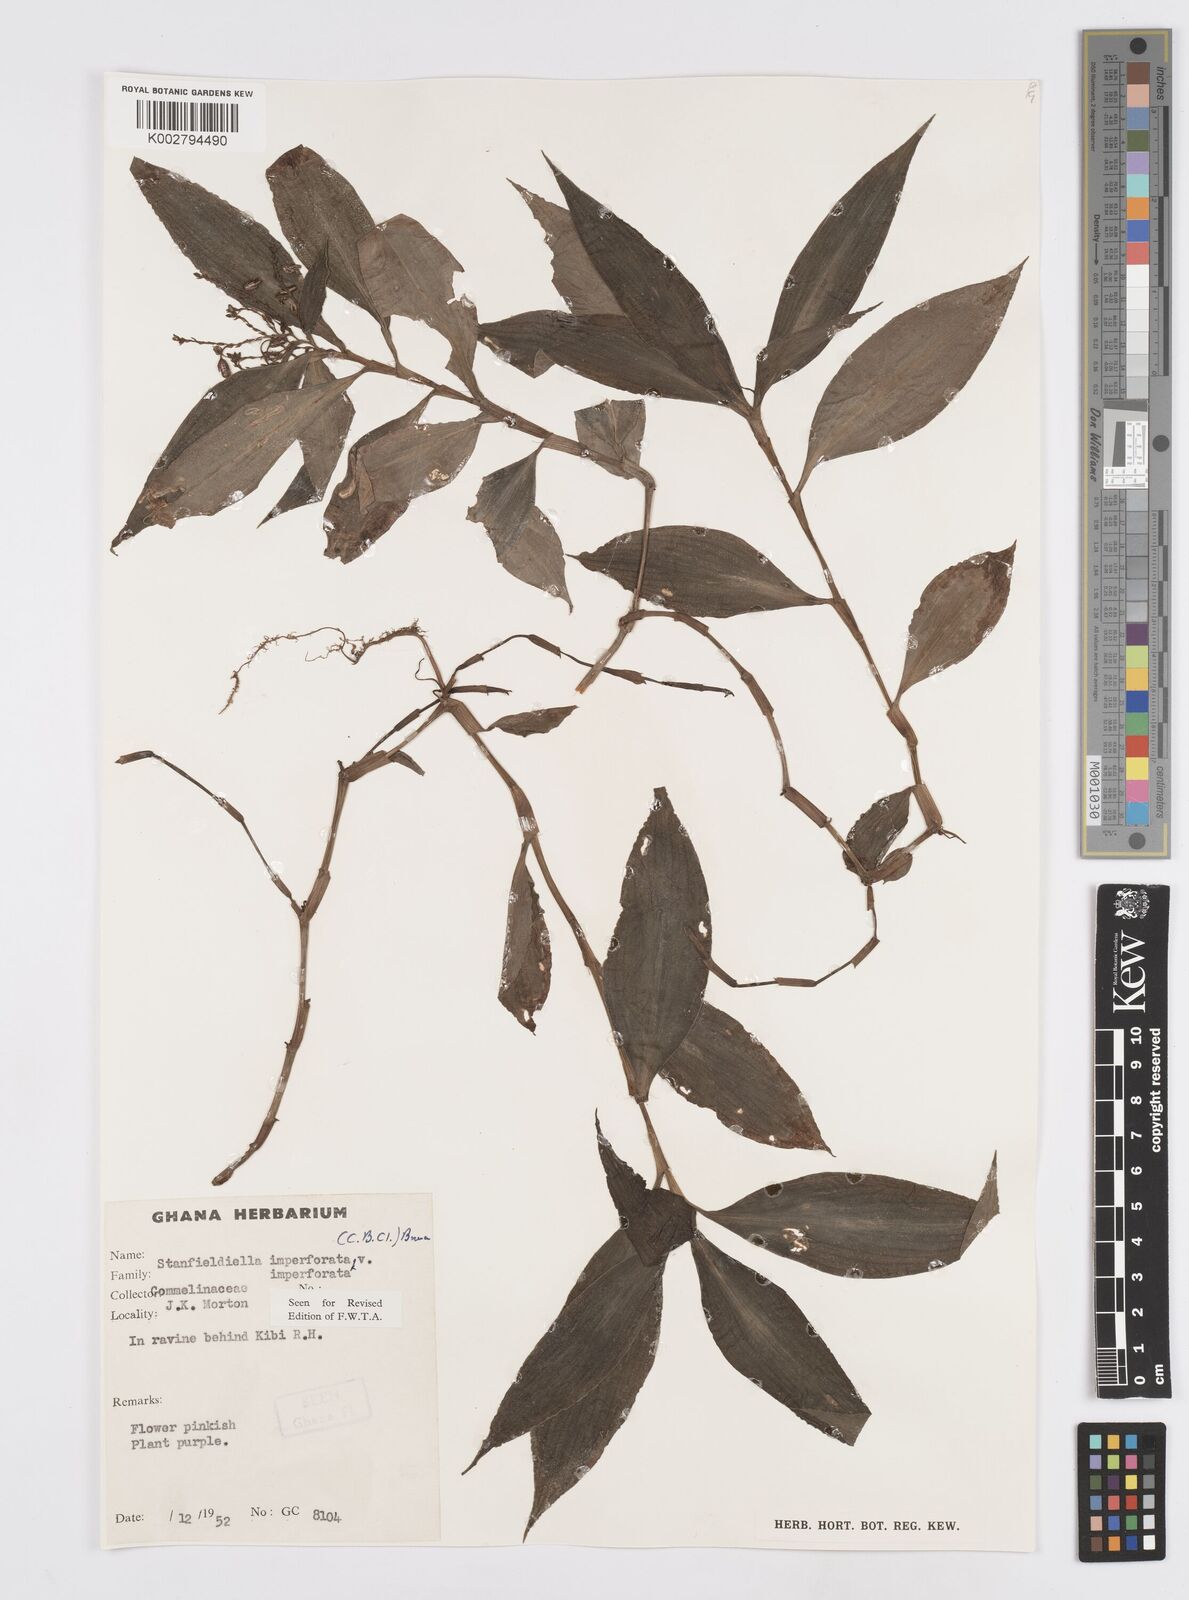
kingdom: Plantae
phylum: Tracheophyta
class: Liliopsida
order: Commelinales
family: Commelinaceae
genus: Stanfieldiella
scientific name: Stanfieldiella imperforata
